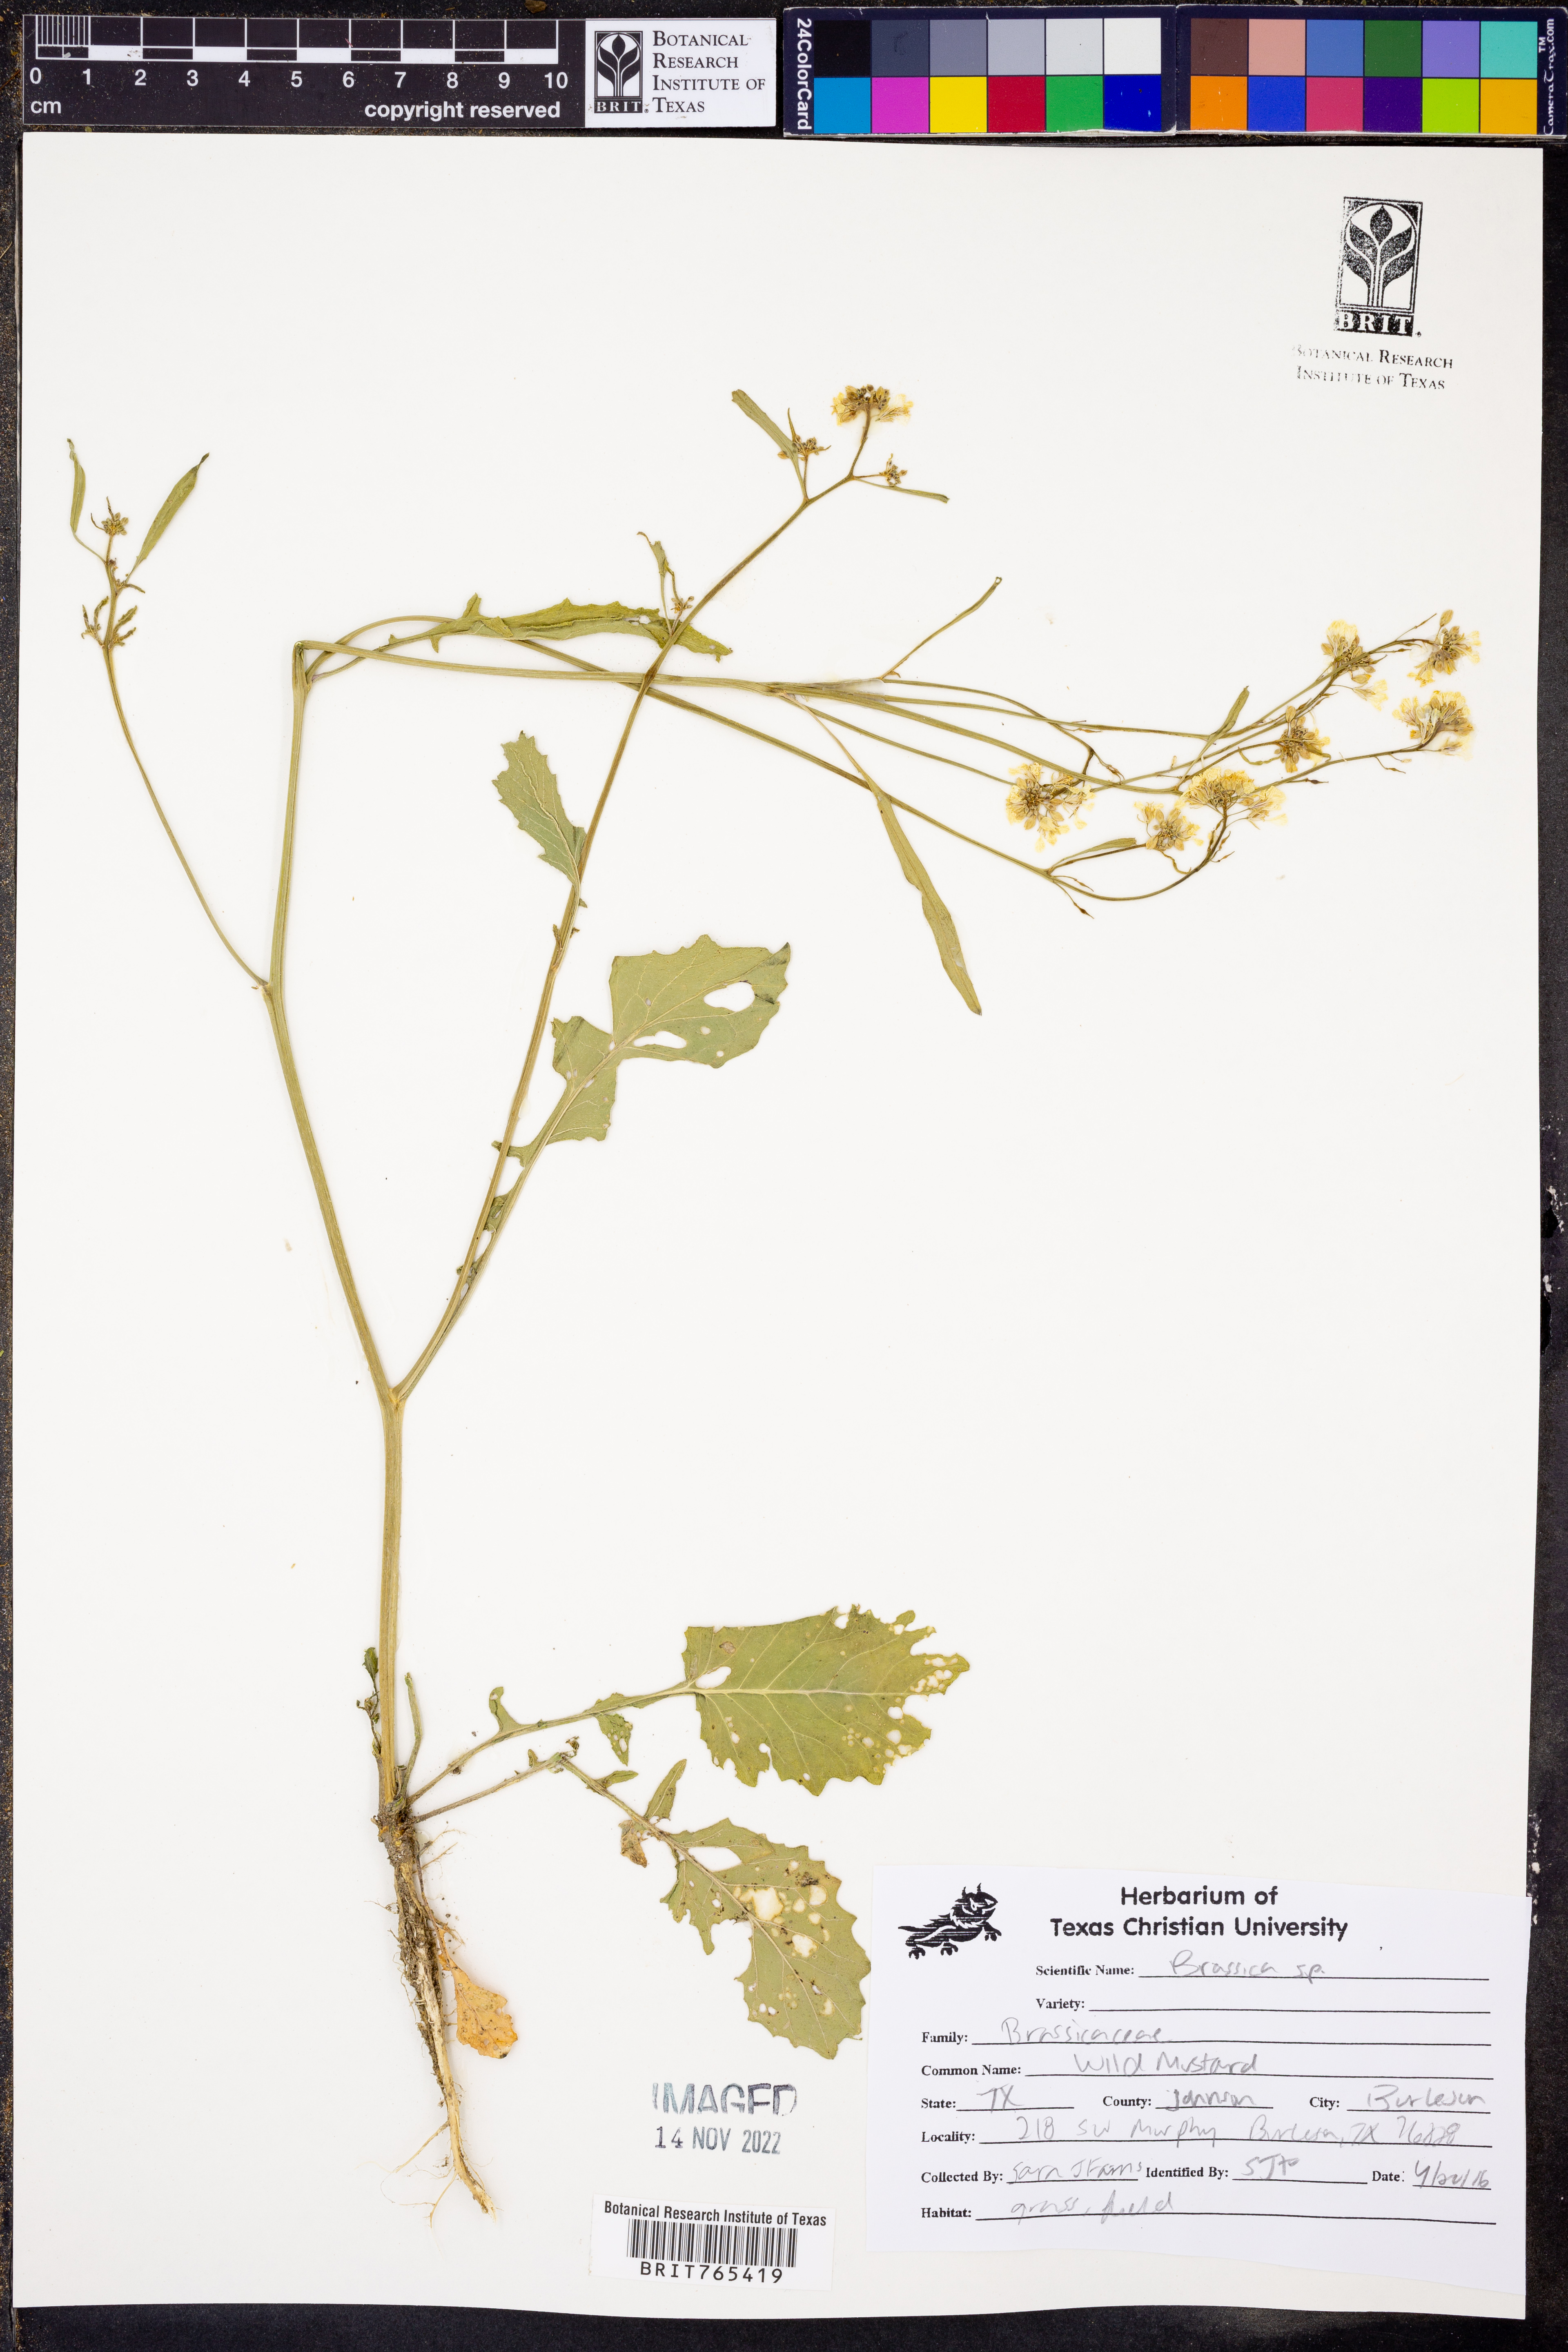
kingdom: Plantae
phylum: Tracheophyta
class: Magnoliopsida
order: Brassicales
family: Brassicaceae
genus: Brassica
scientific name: Brassica
